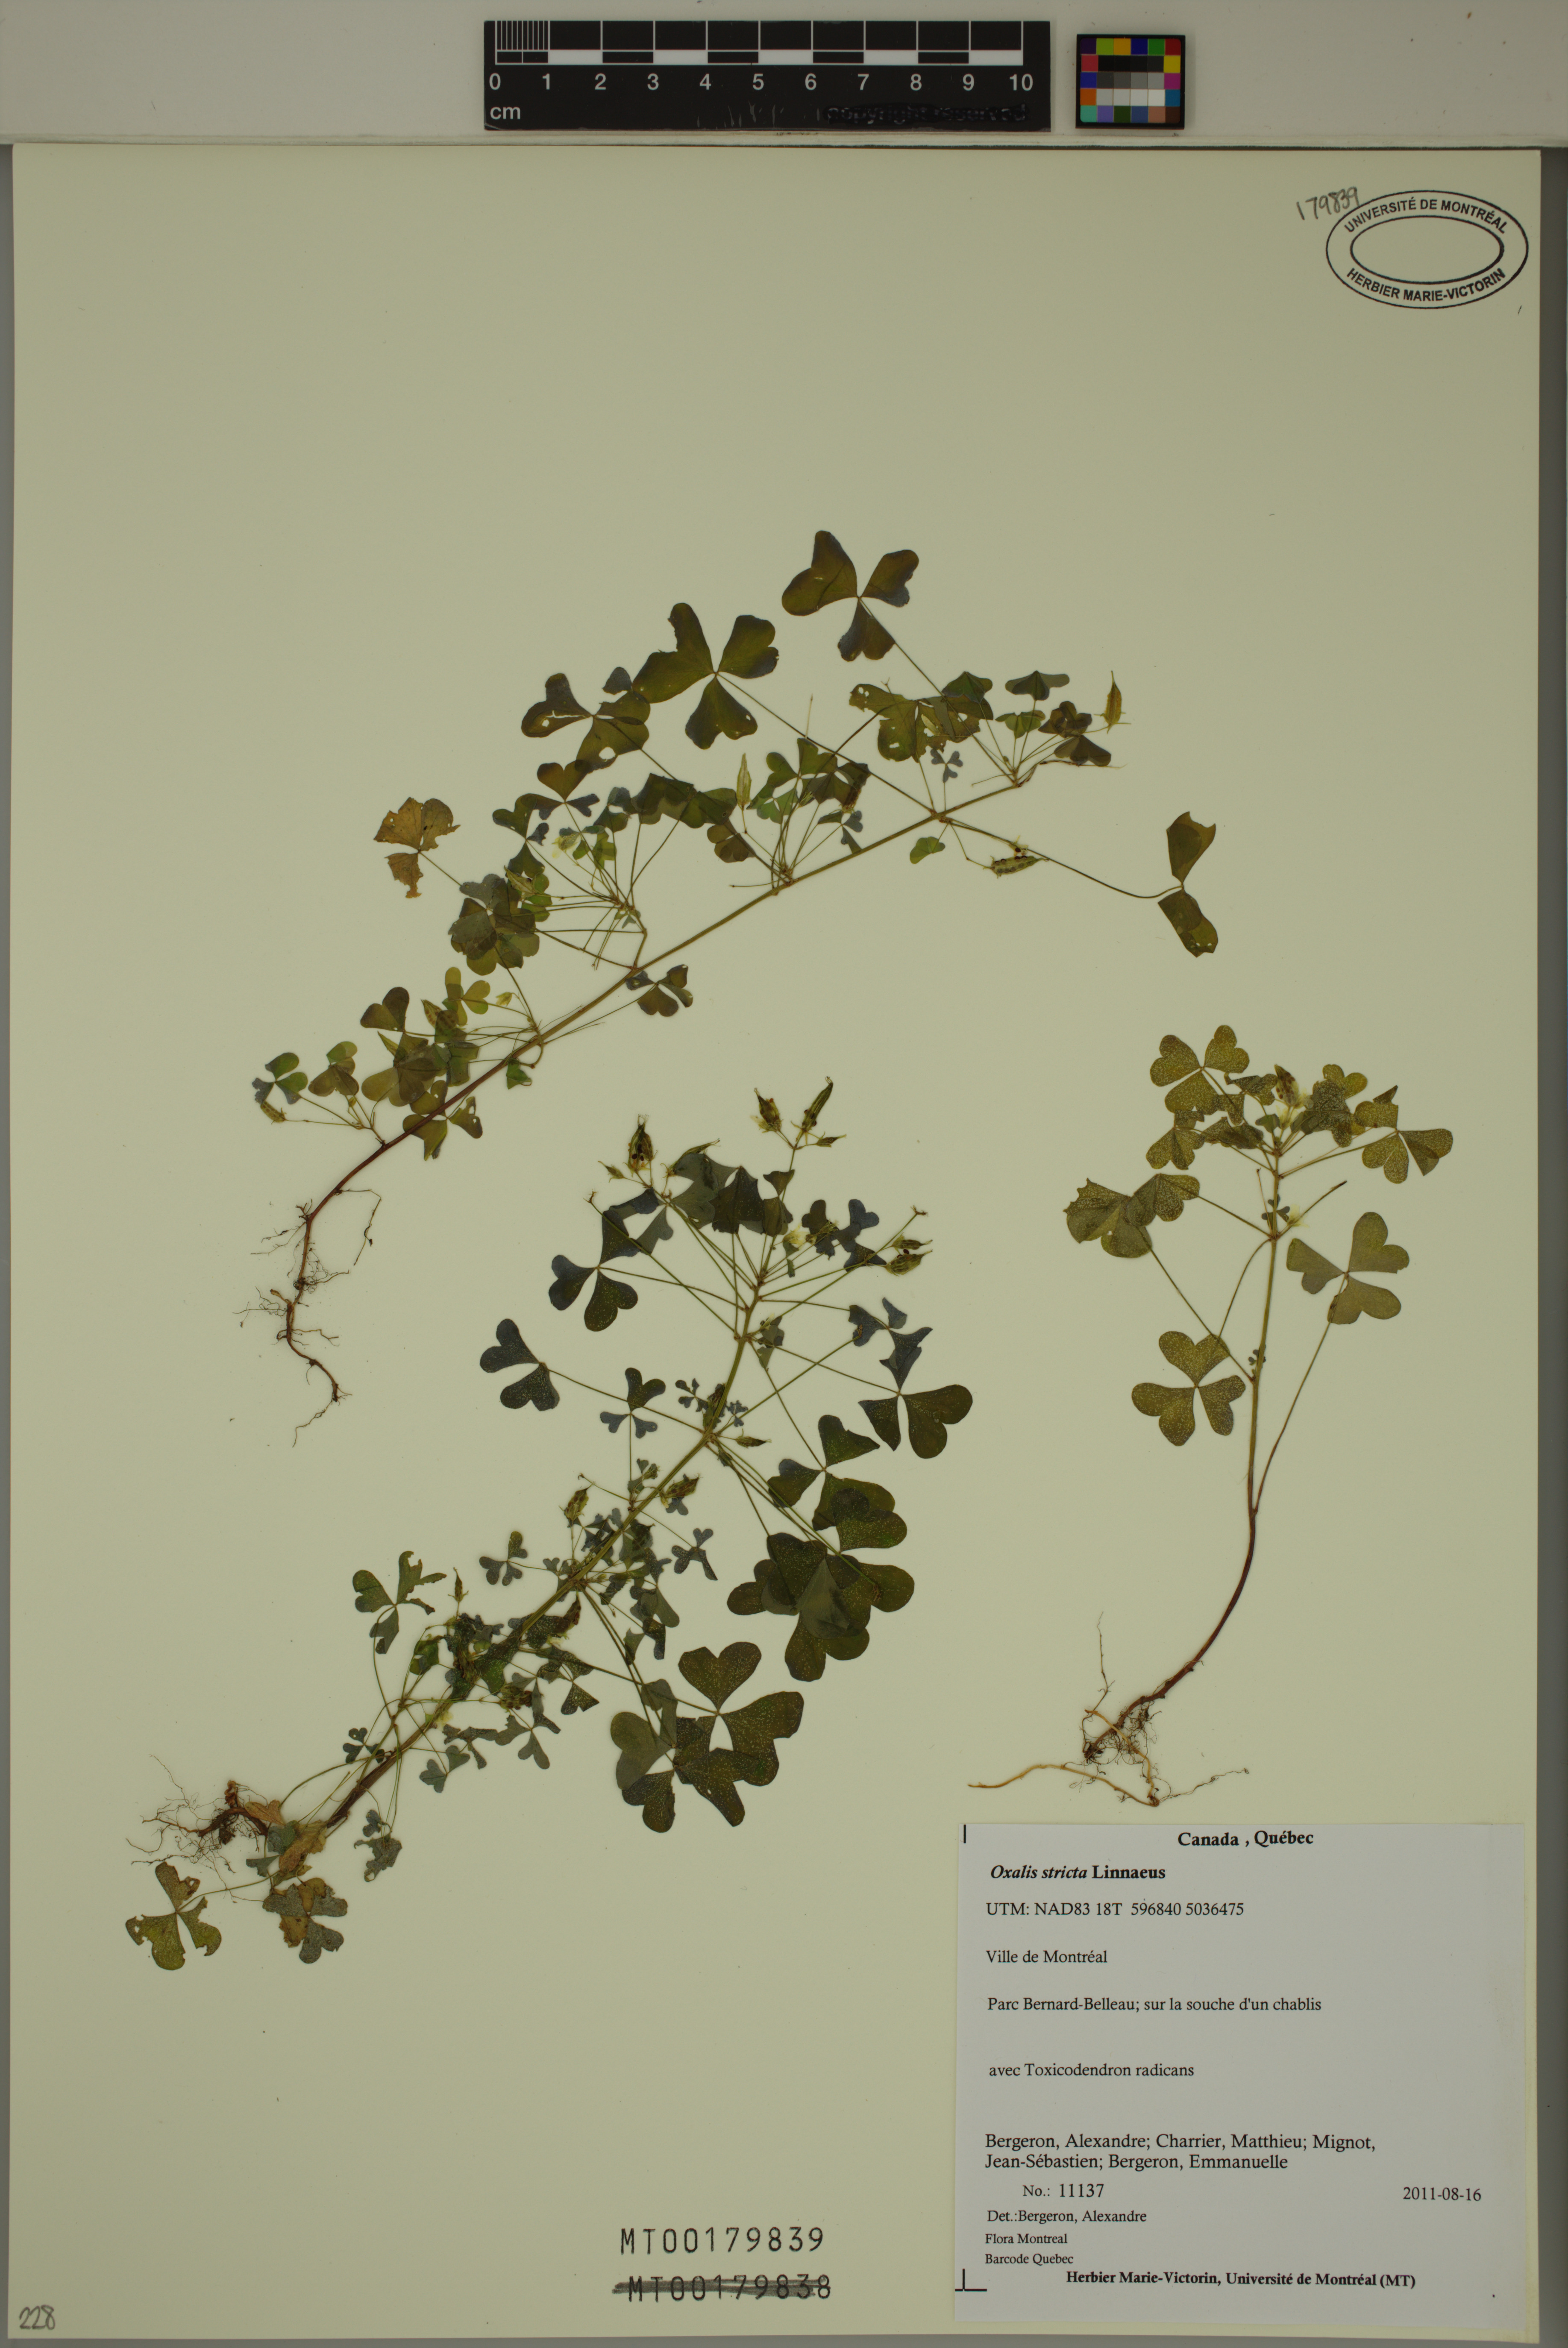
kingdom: Plantae
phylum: Tracheophyta
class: Magnoliopsida
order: Oxalidales
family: Oxalidaceae
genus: Oxalis
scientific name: Oxalis stricta
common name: Upright yellow-sorrel
